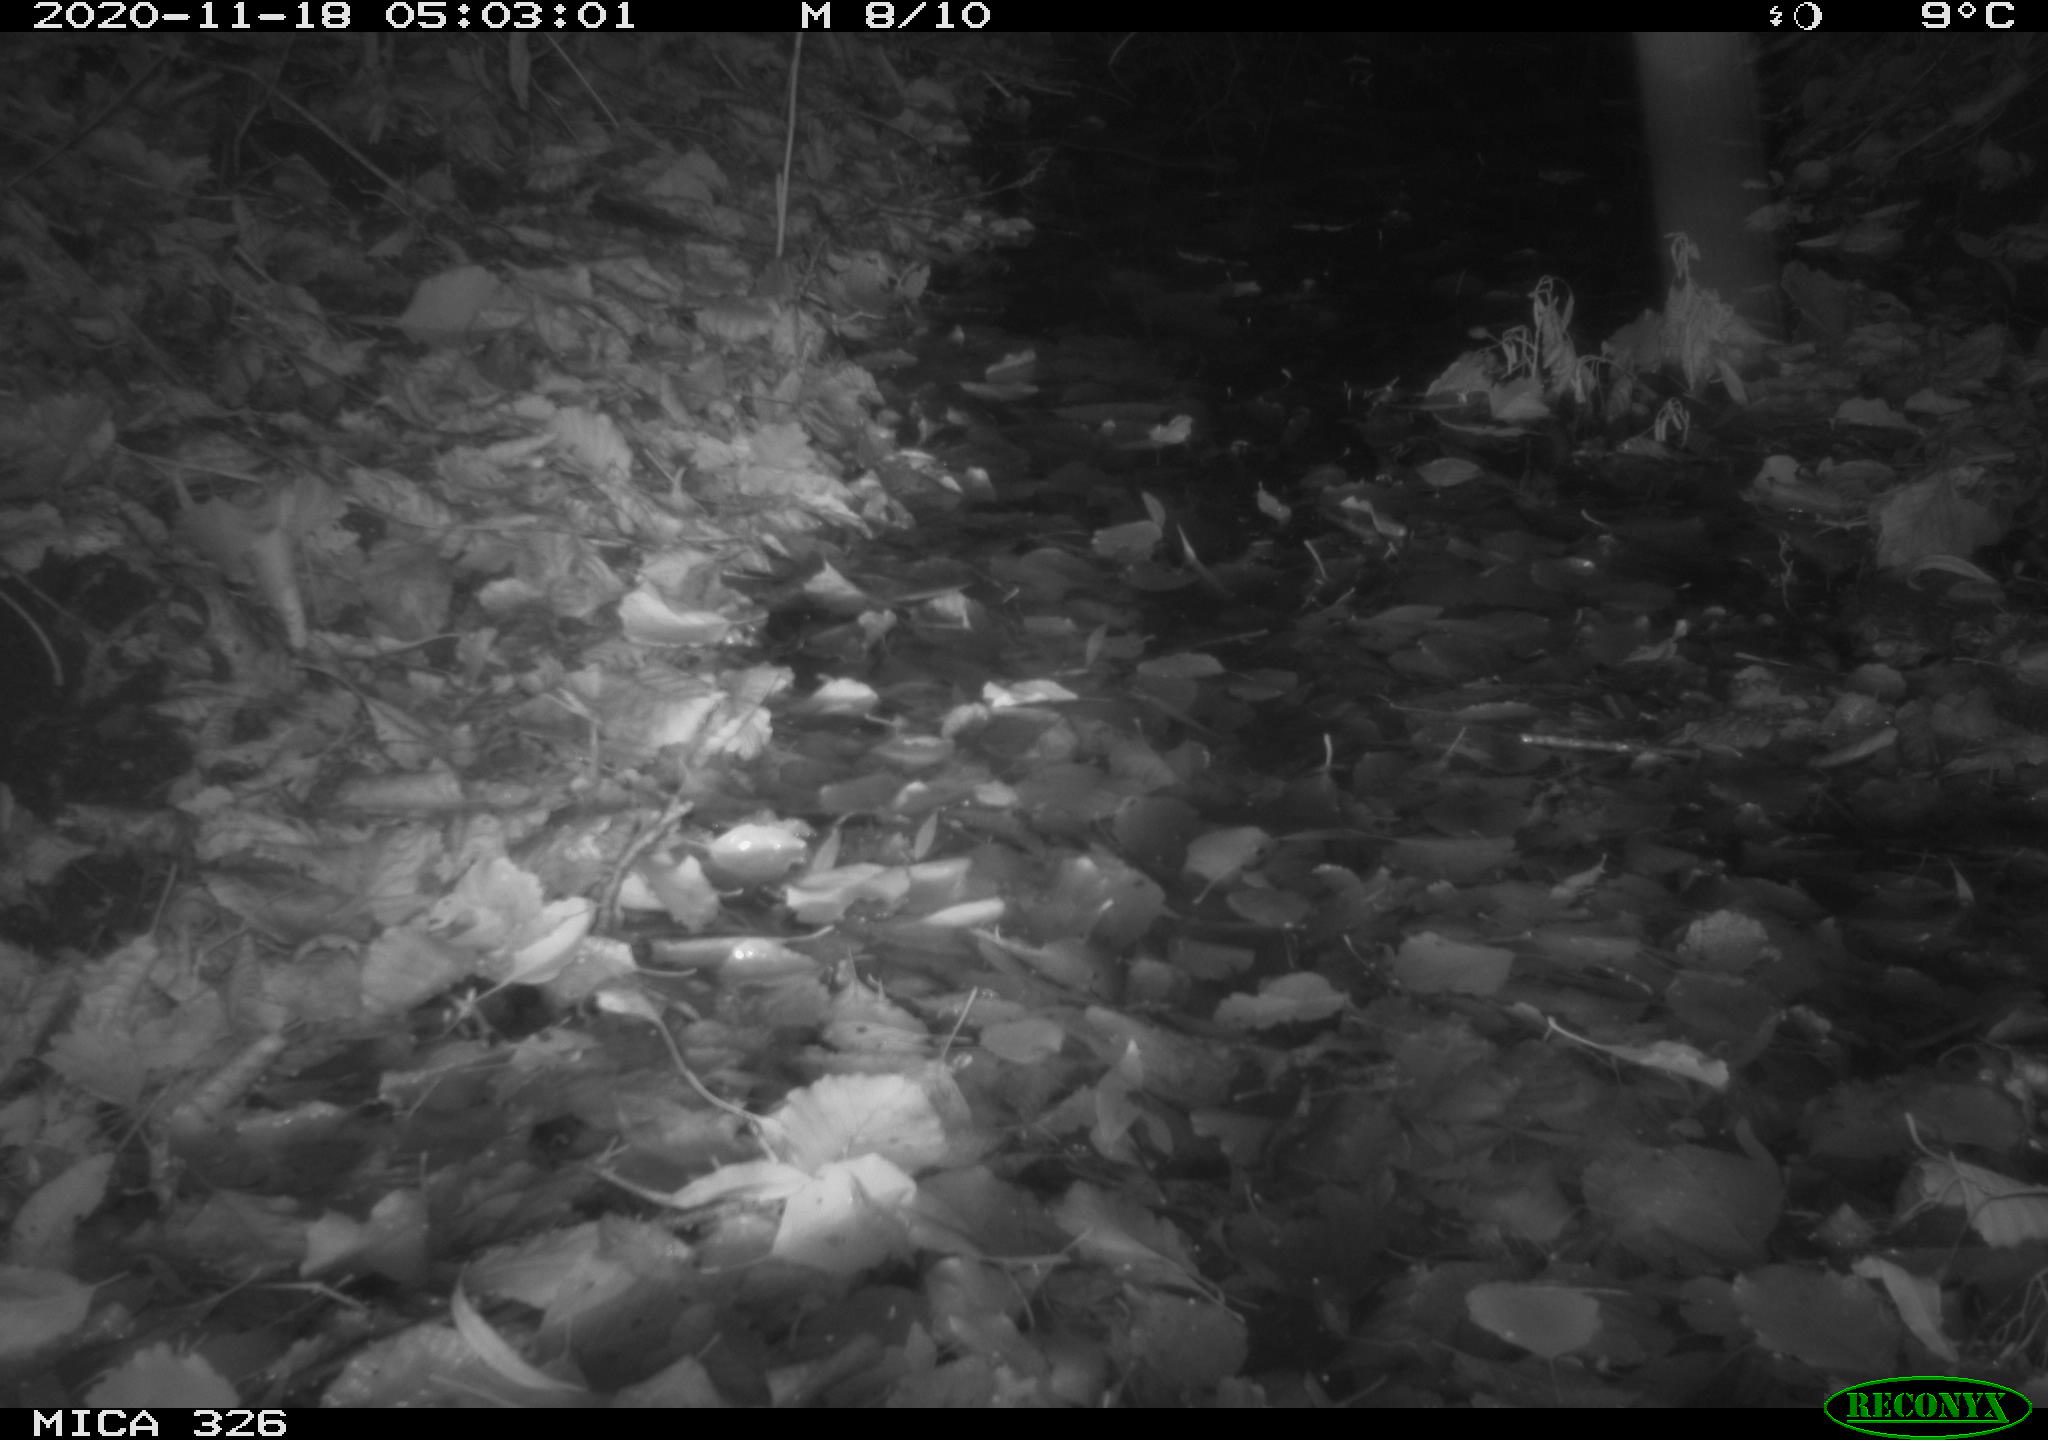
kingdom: Animalia
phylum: Chordata
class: Mammalia
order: Rodentia
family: Muridae
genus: Rattus
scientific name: Rattus norvegicus
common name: Brown rat
